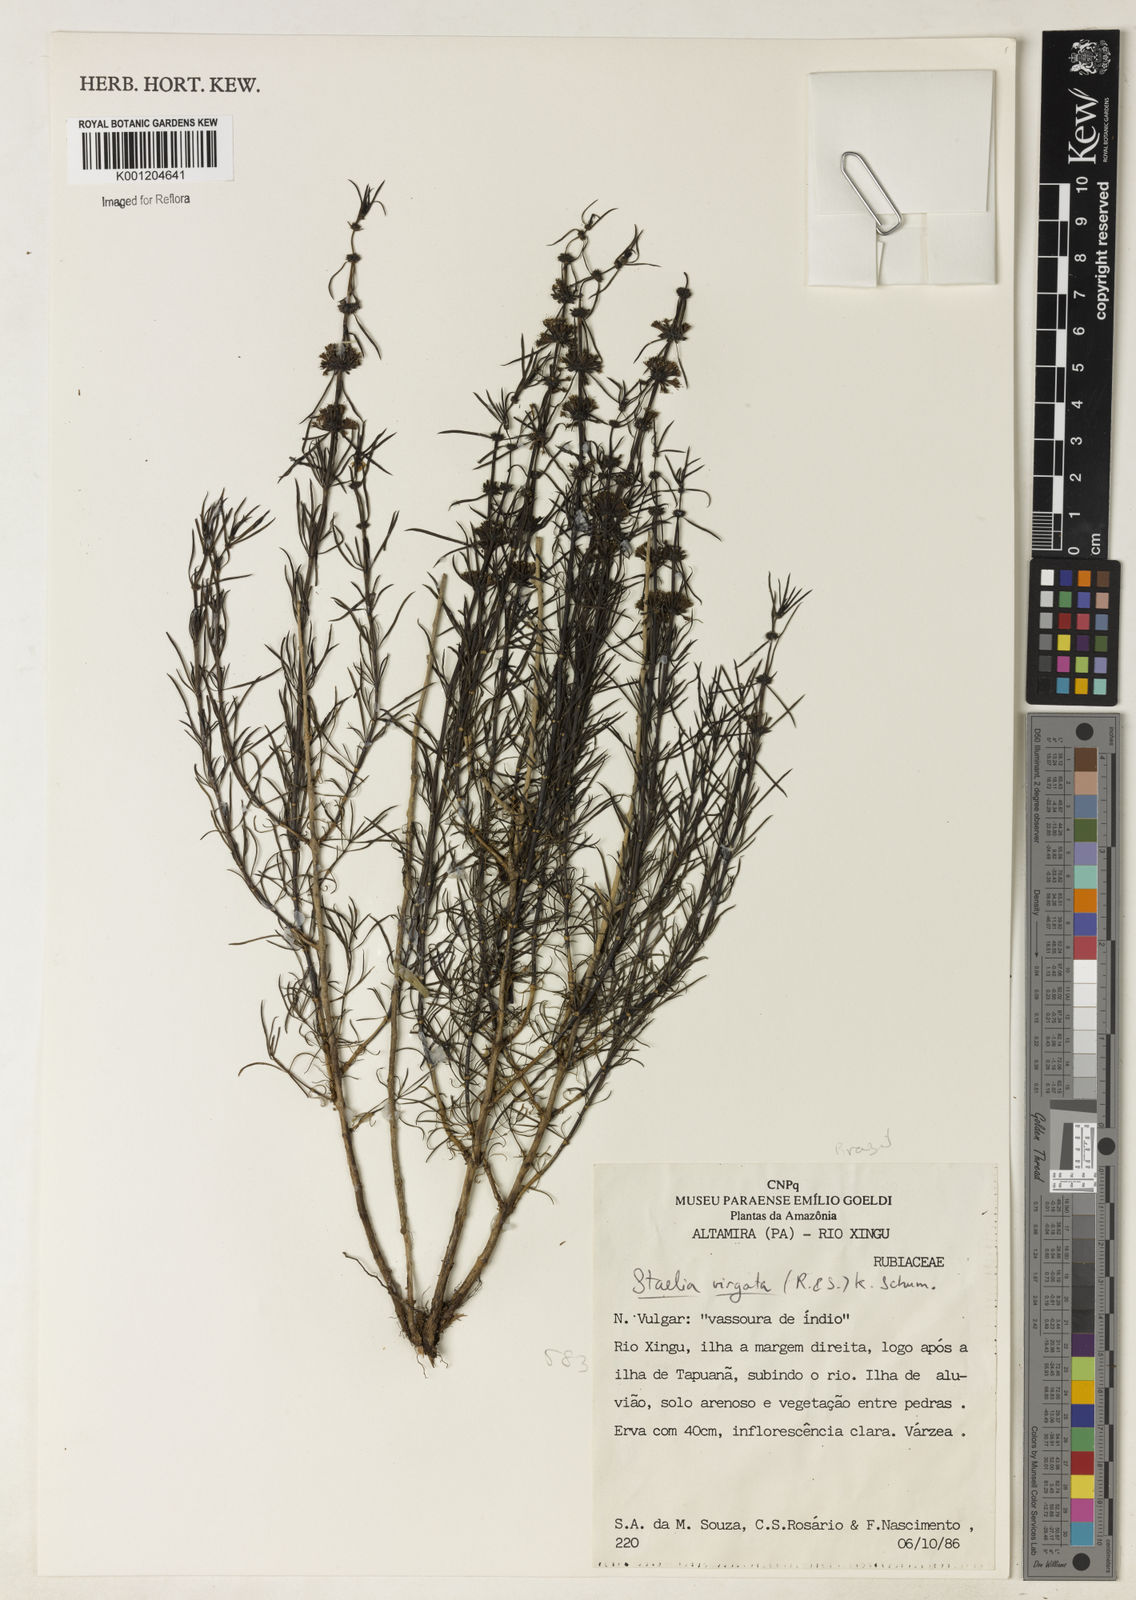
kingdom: Plantae
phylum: Tracheophyta
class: Magnoliopsida
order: Gentianales
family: Rubiaceae
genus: Staelia
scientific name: Staelia virgata
